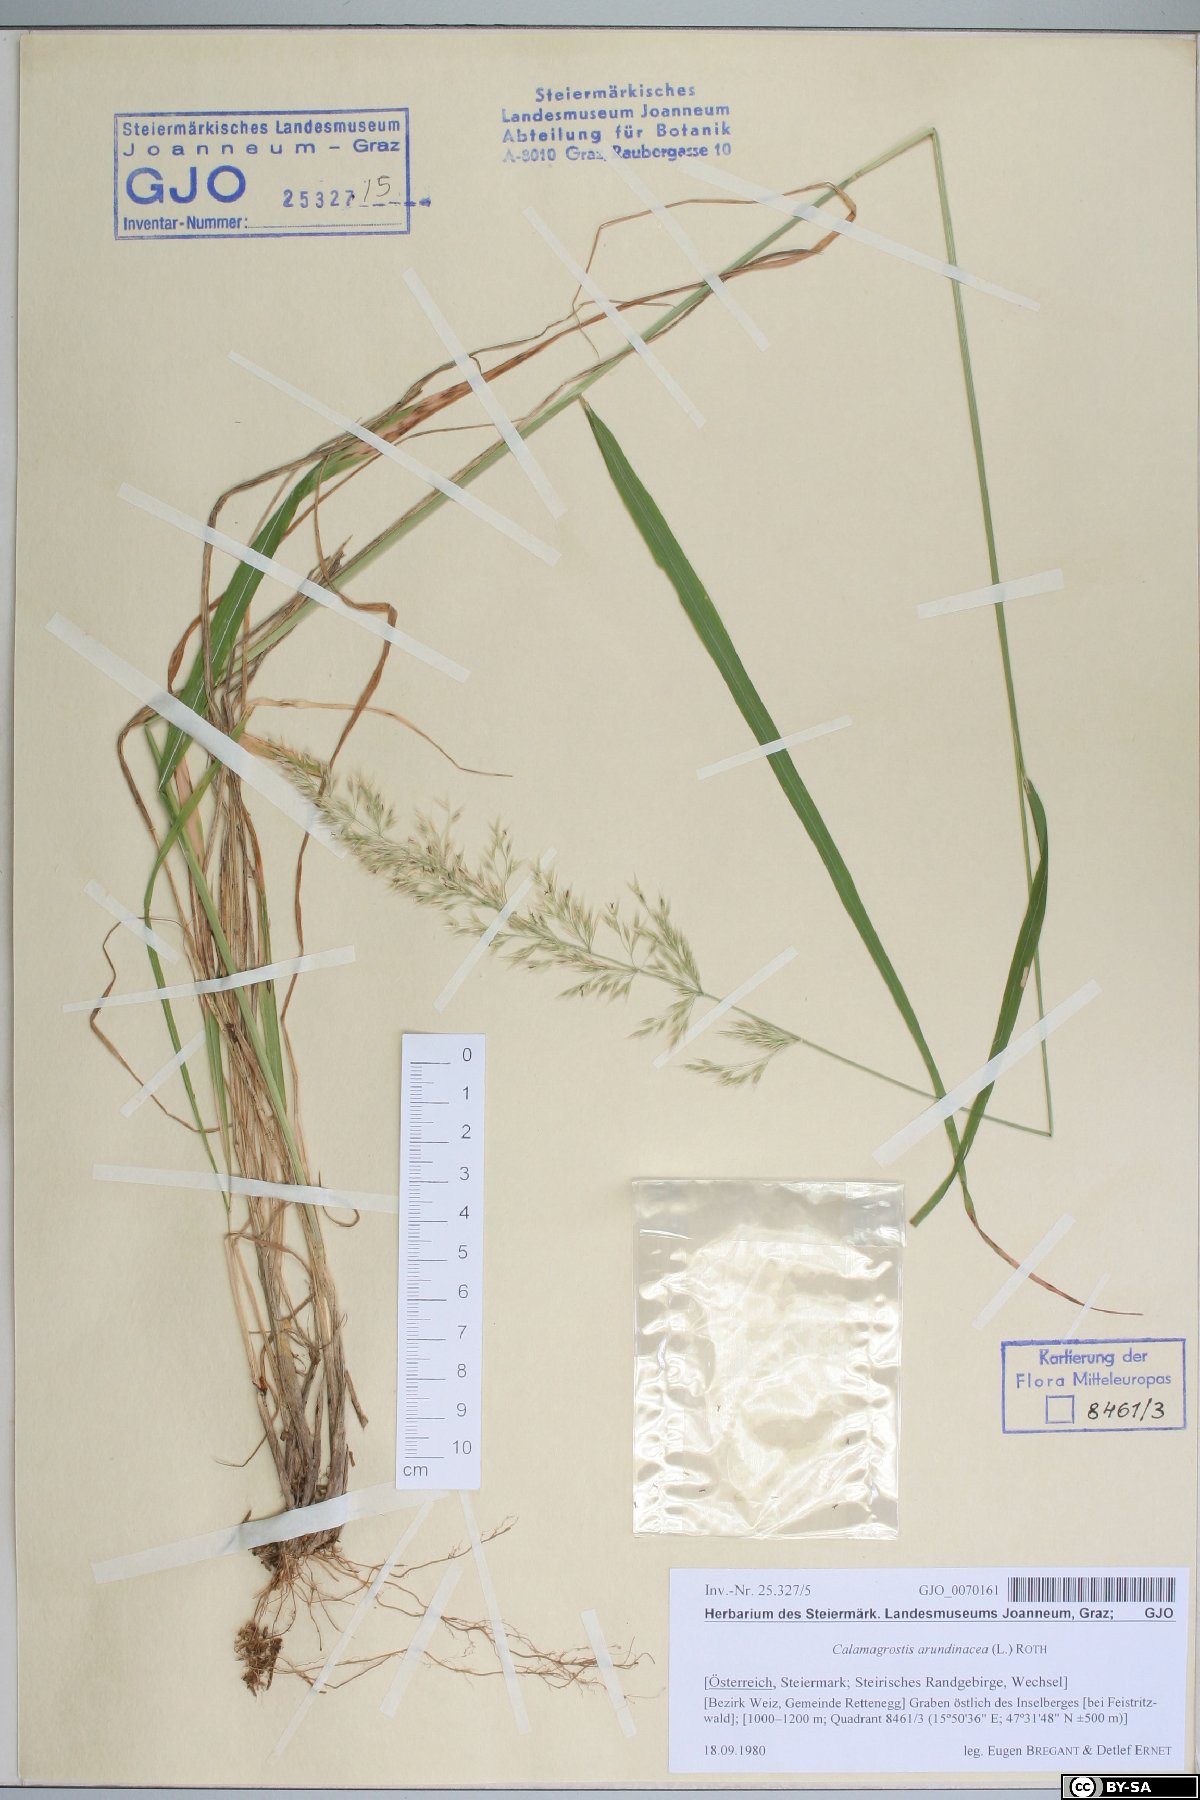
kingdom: Plantae
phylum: Tracheophyta
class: Liliopsida
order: Poales
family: Poaceae
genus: Calamagrostis
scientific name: Calamagrostis arundinacea
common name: Metskastik
